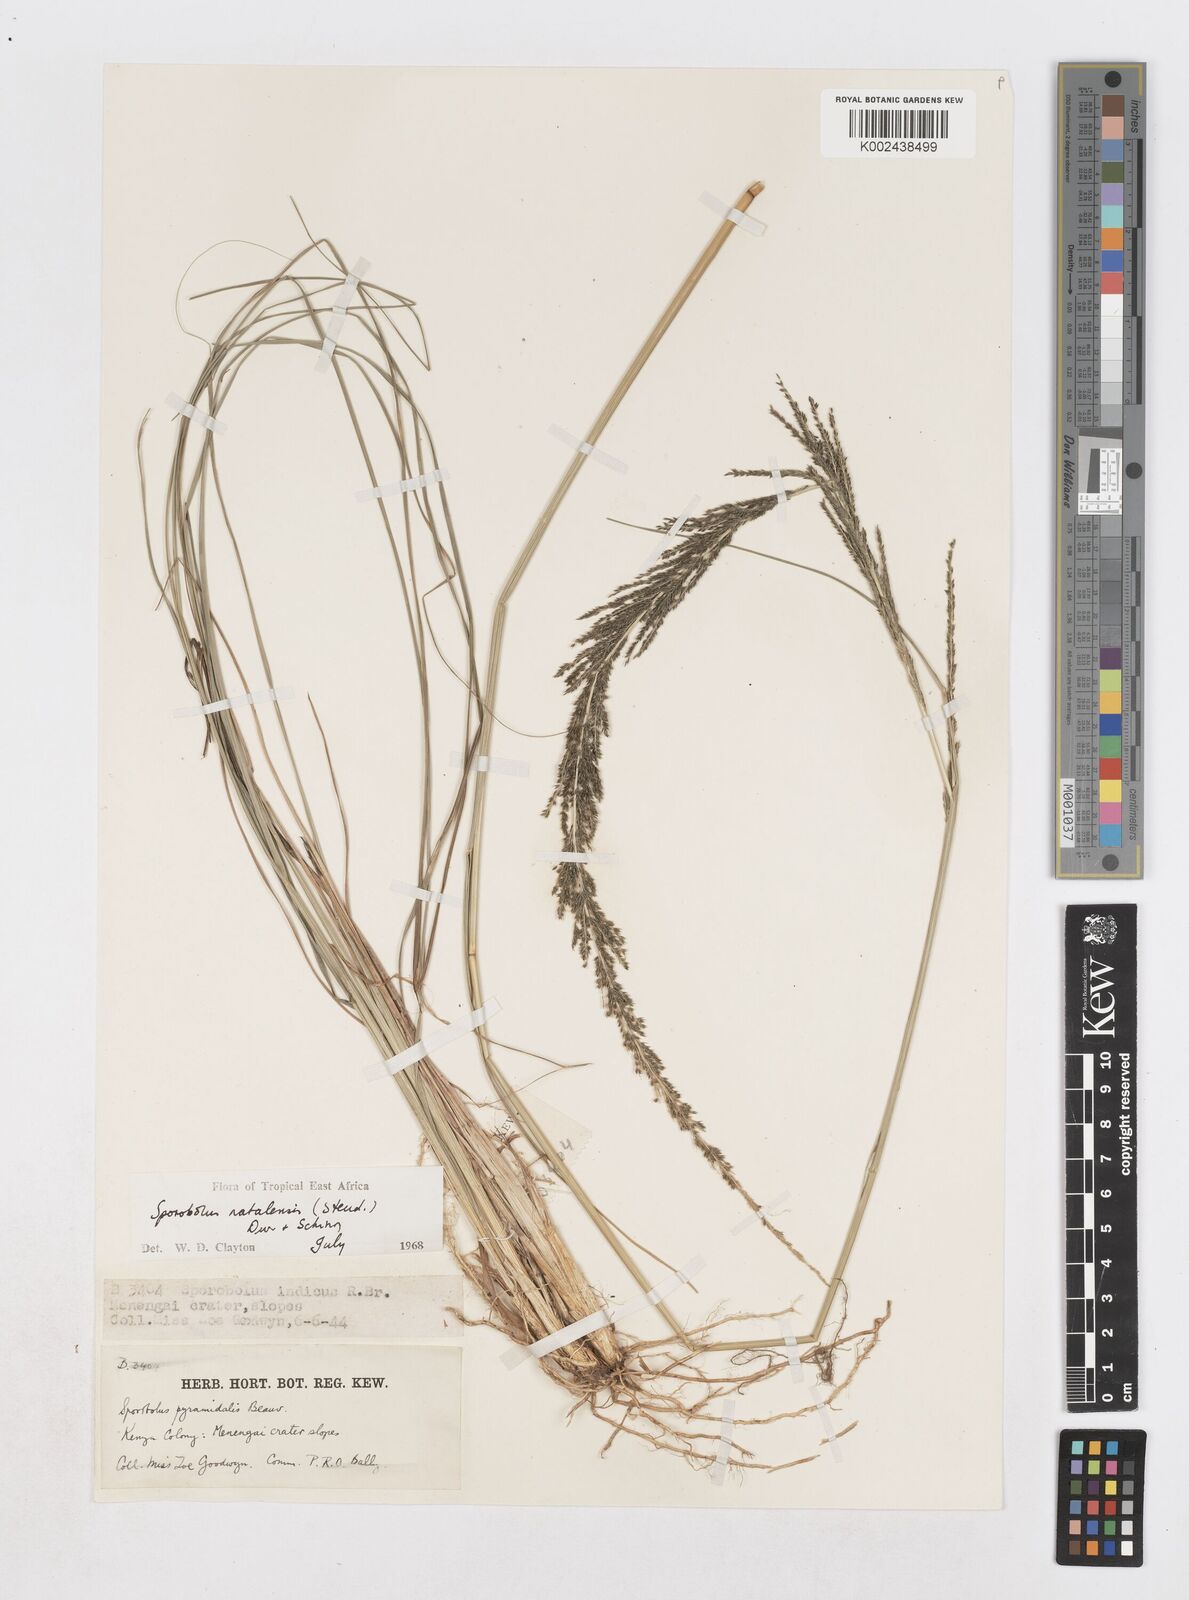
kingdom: Plantae
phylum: Tracheophyta
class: Liliopsida
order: Poales
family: Poaceae
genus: Sporobolus
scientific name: Sporobolus natalensis
